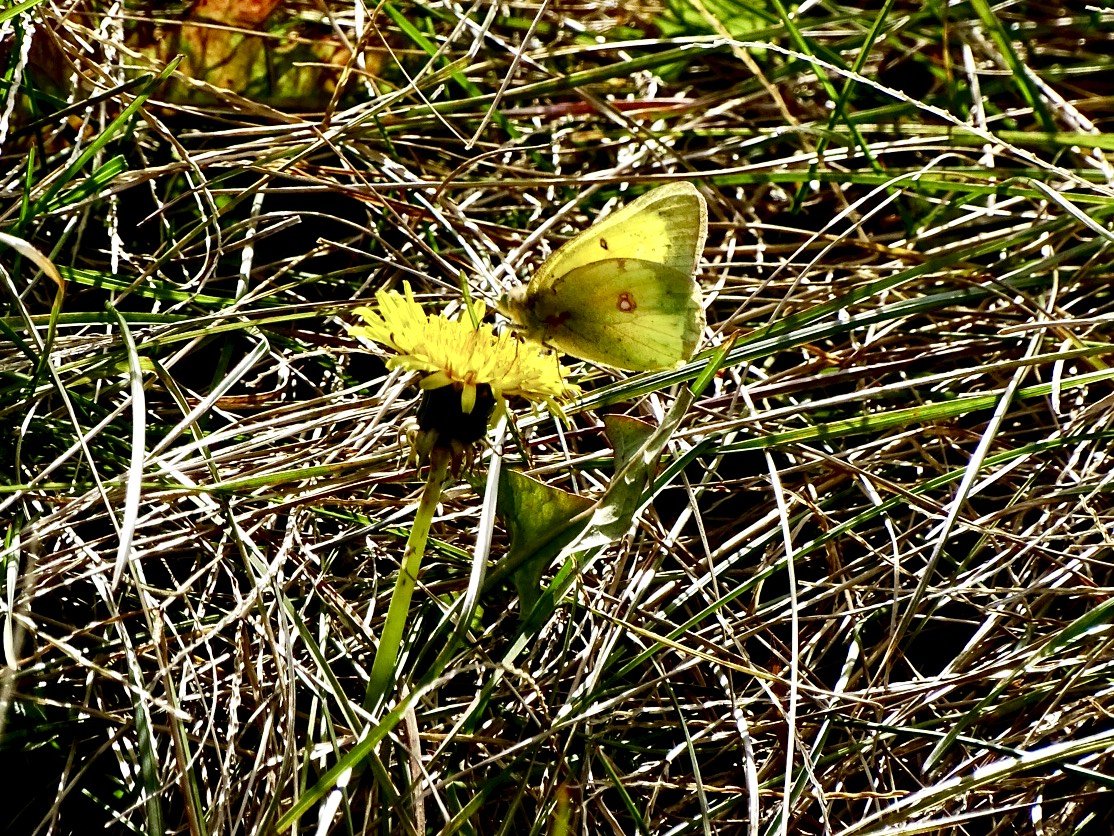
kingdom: Animalia
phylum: Arthropoda
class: Insecta
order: Lepidoptera
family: Pieridae
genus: Colias
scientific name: Colias philodice
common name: Clouded Sulphur
